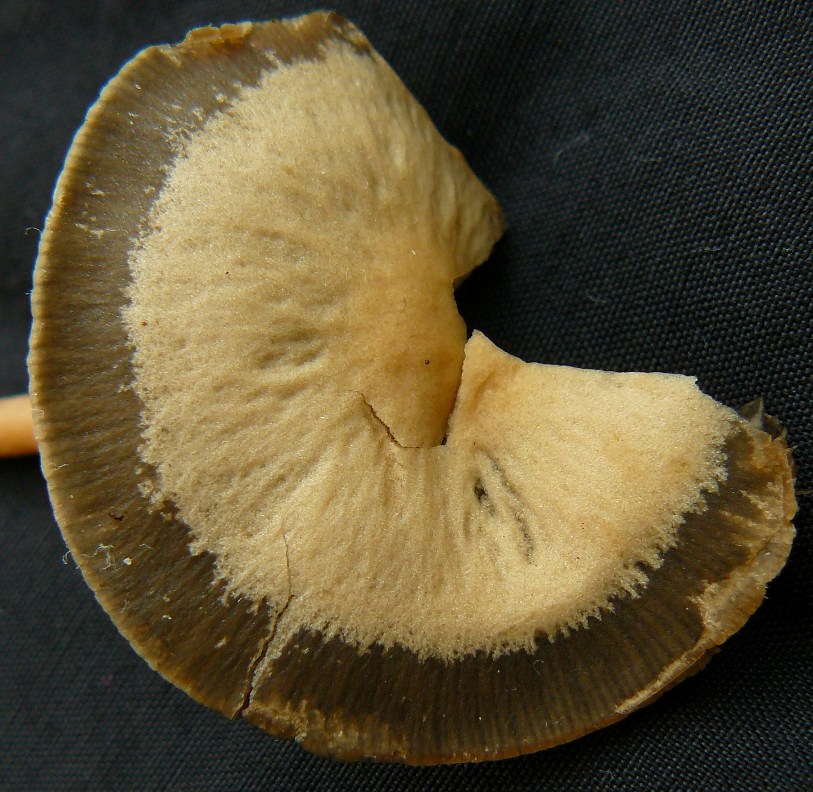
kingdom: Fungi
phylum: Basidiomycota
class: Agaricomycetes
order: Agaricales
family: Bolbitiaceae
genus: Panaeolus
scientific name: Panaeolus cinctulus
